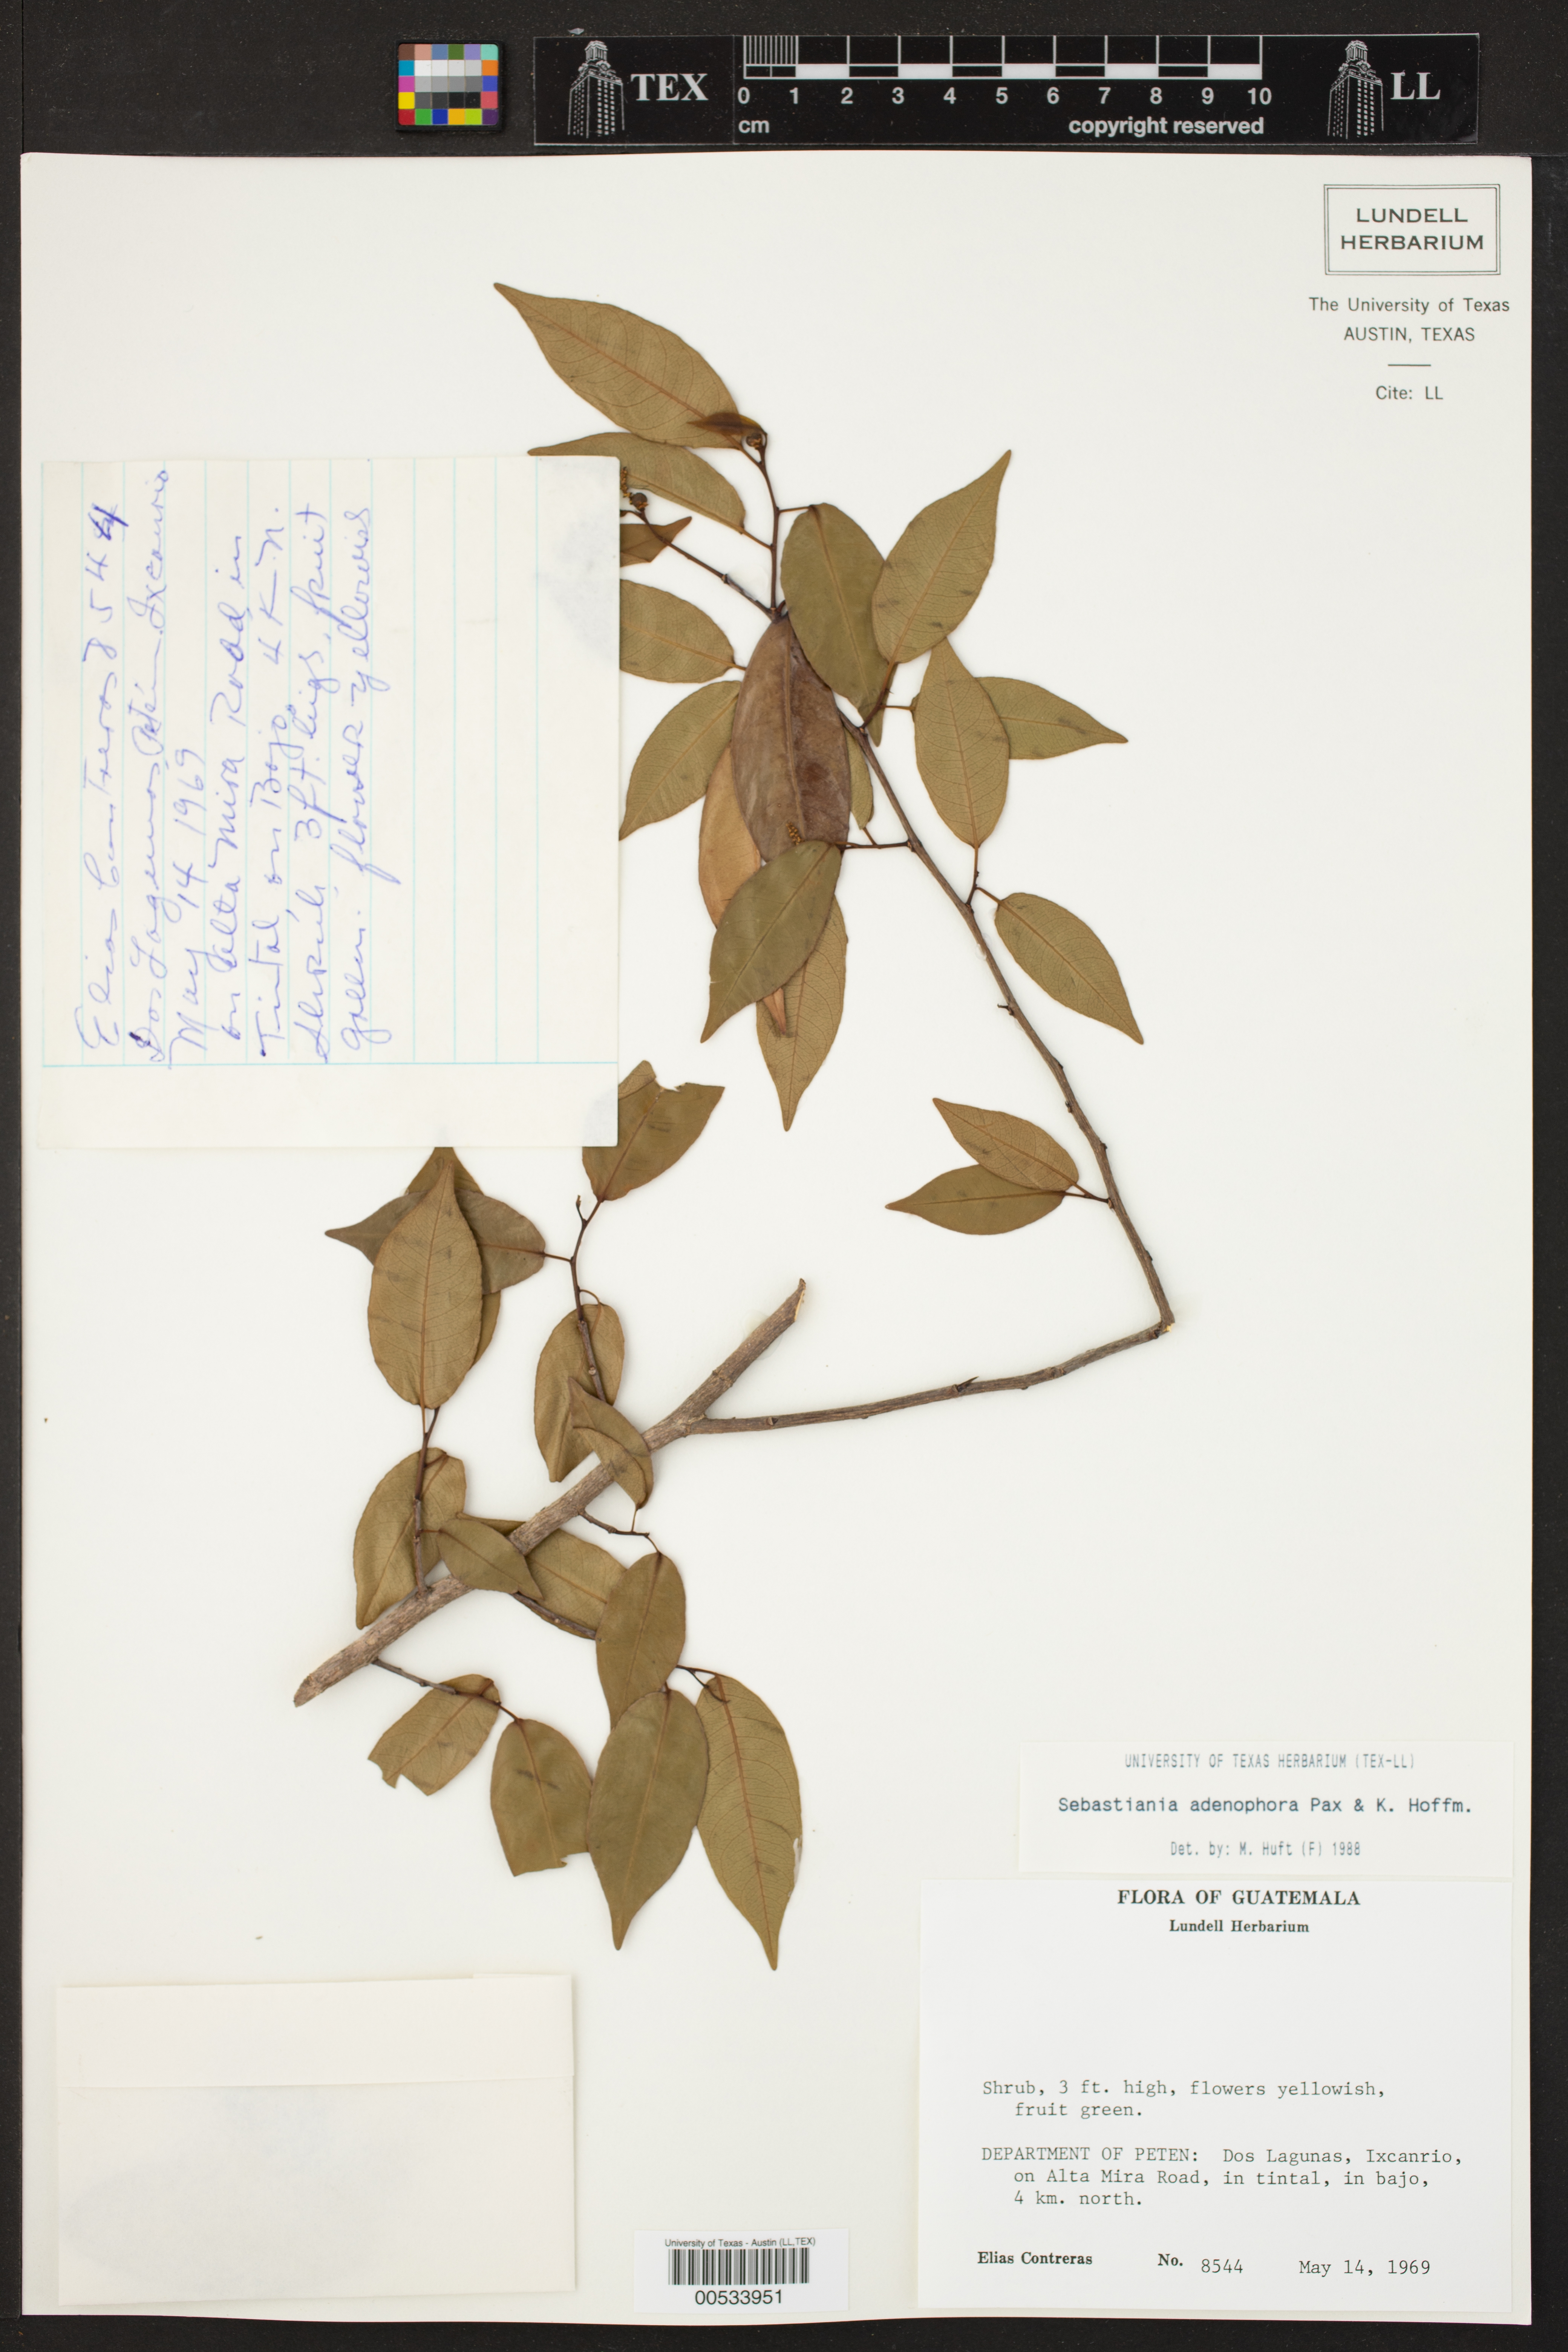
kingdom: Plantae
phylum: Tracheophyta
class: Magnoliopsida
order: Malpighiales
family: Euphorbiaceae
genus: Sebastiania
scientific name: Sebastiania glandulosa
